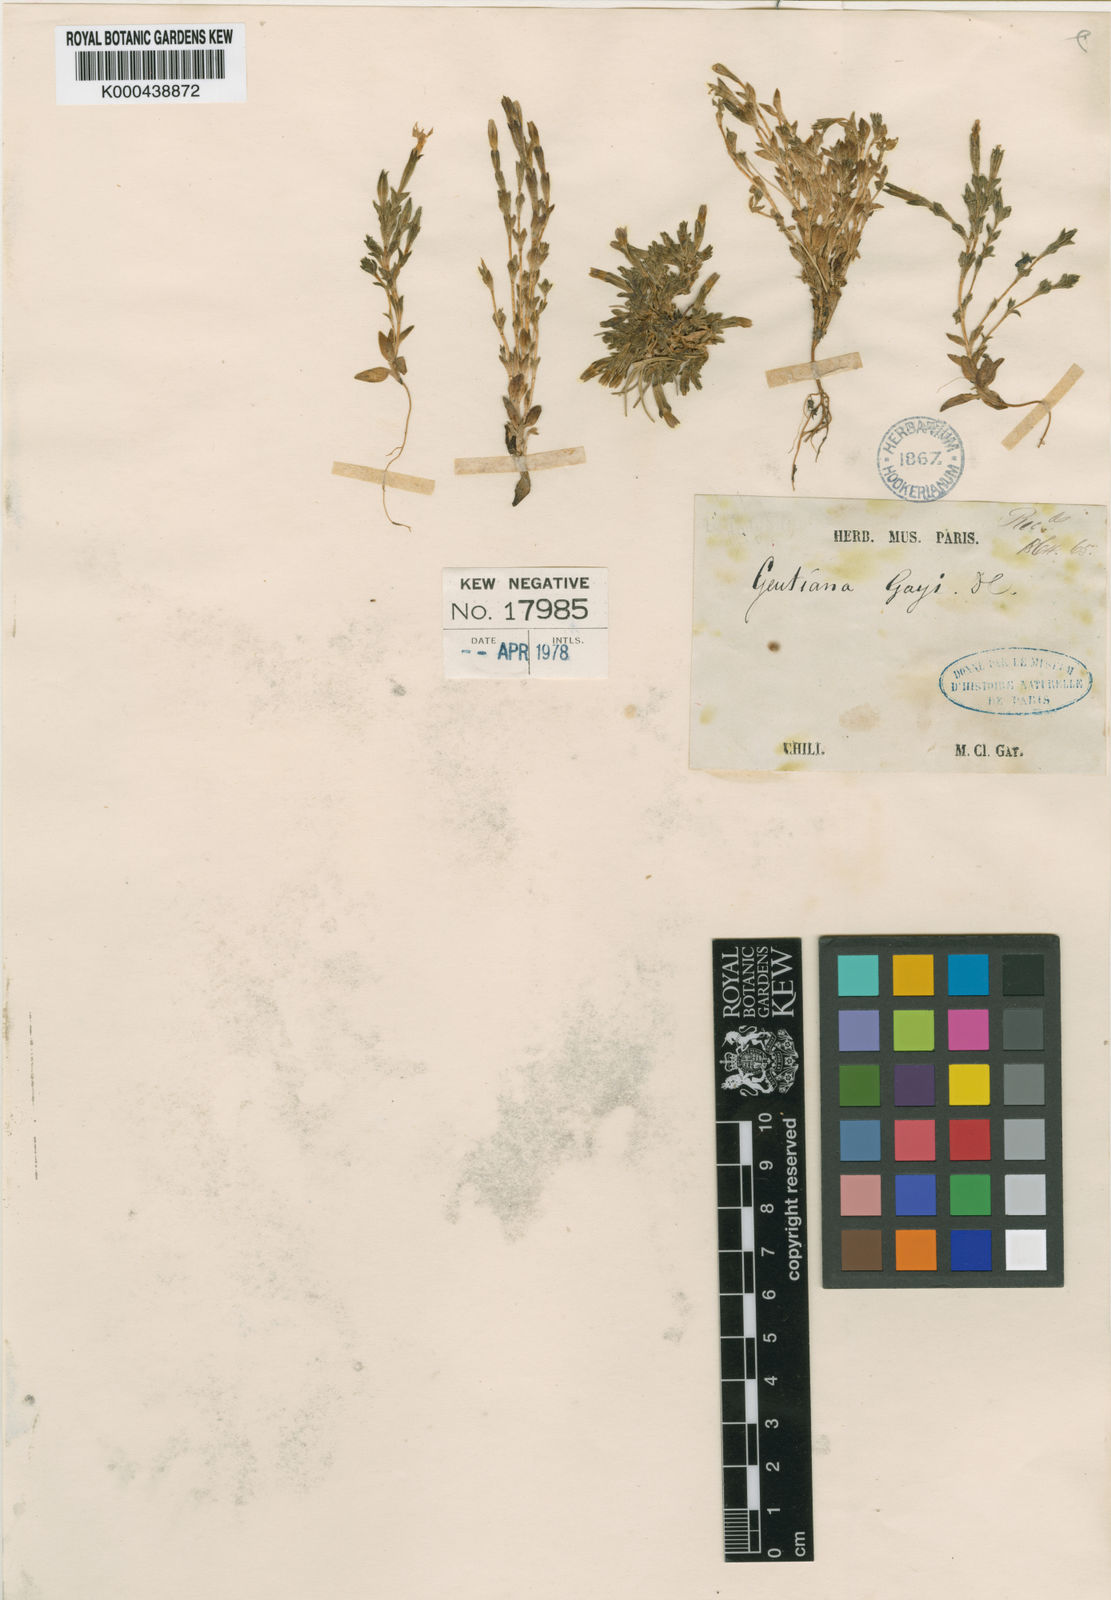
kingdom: Plantae
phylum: Tracheophyta
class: Magnoliopsida
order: Gentianales
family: Gentianaceae
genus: Gentiana
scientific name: Gentiana prostrata
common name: Moss gentian
